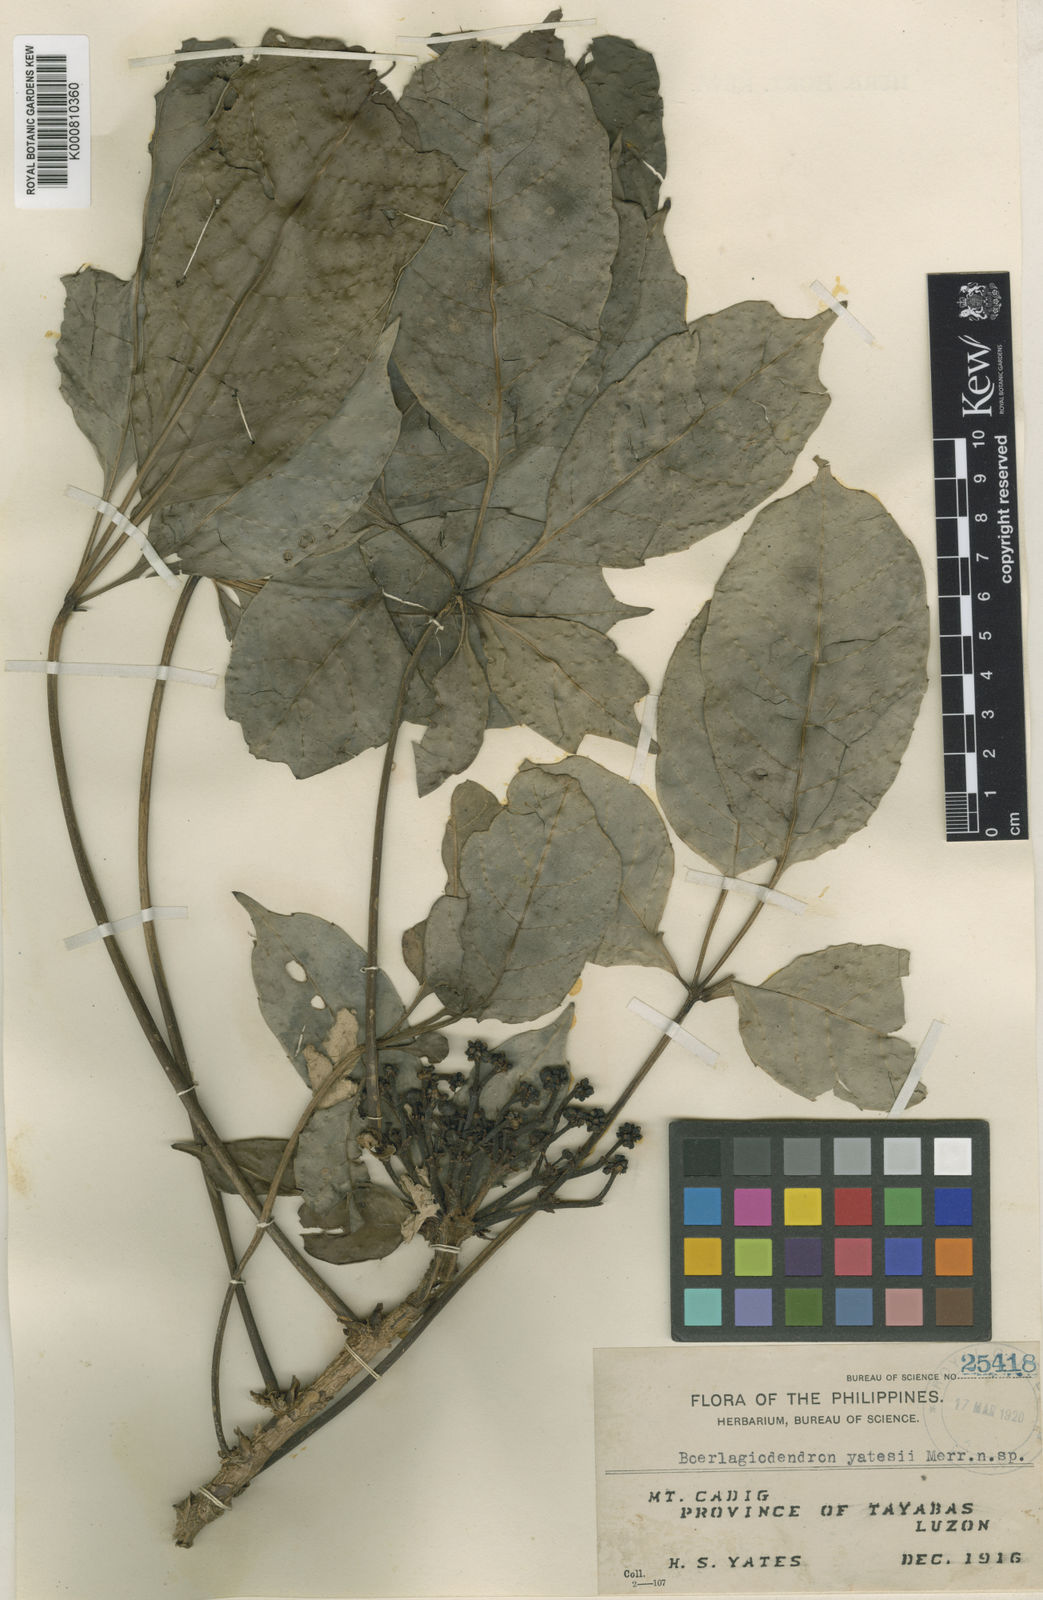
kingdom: Plantae
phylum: Tracheophyta
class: Magnoliopsida
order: Apiales
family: Araliaceae
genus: Osmoxylon
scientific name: Osmoxylon yatesii
